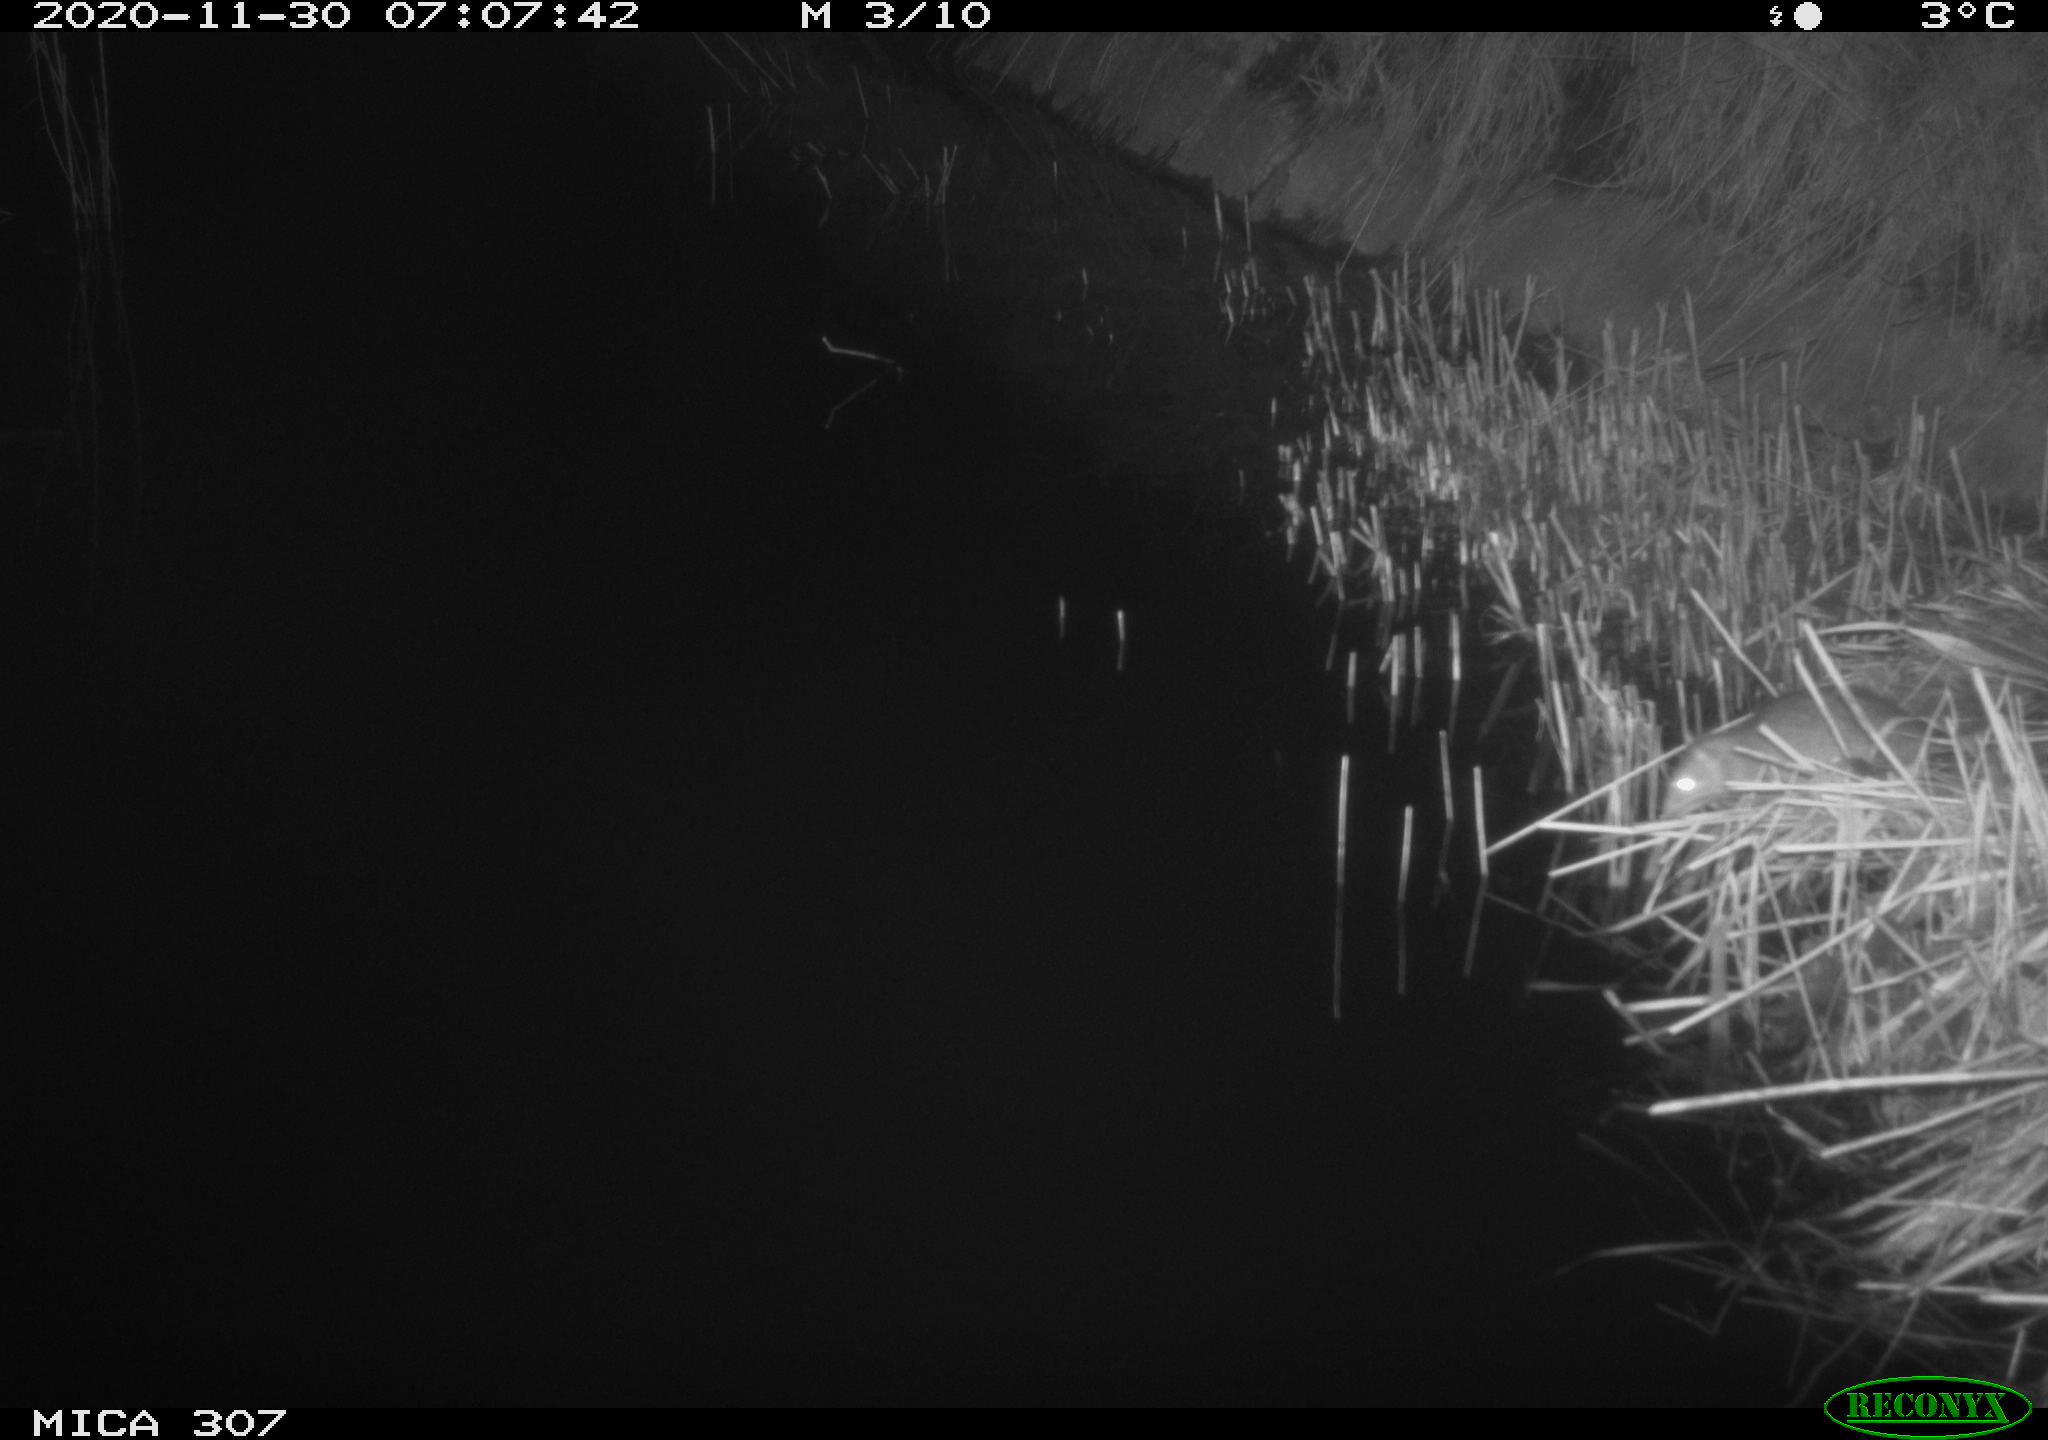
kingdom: Animalia
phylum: Chordata
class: Mammalia
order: Rodentia
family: Muridae
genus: Rattus
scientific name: Rattus norvegicus
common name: Brown rat
